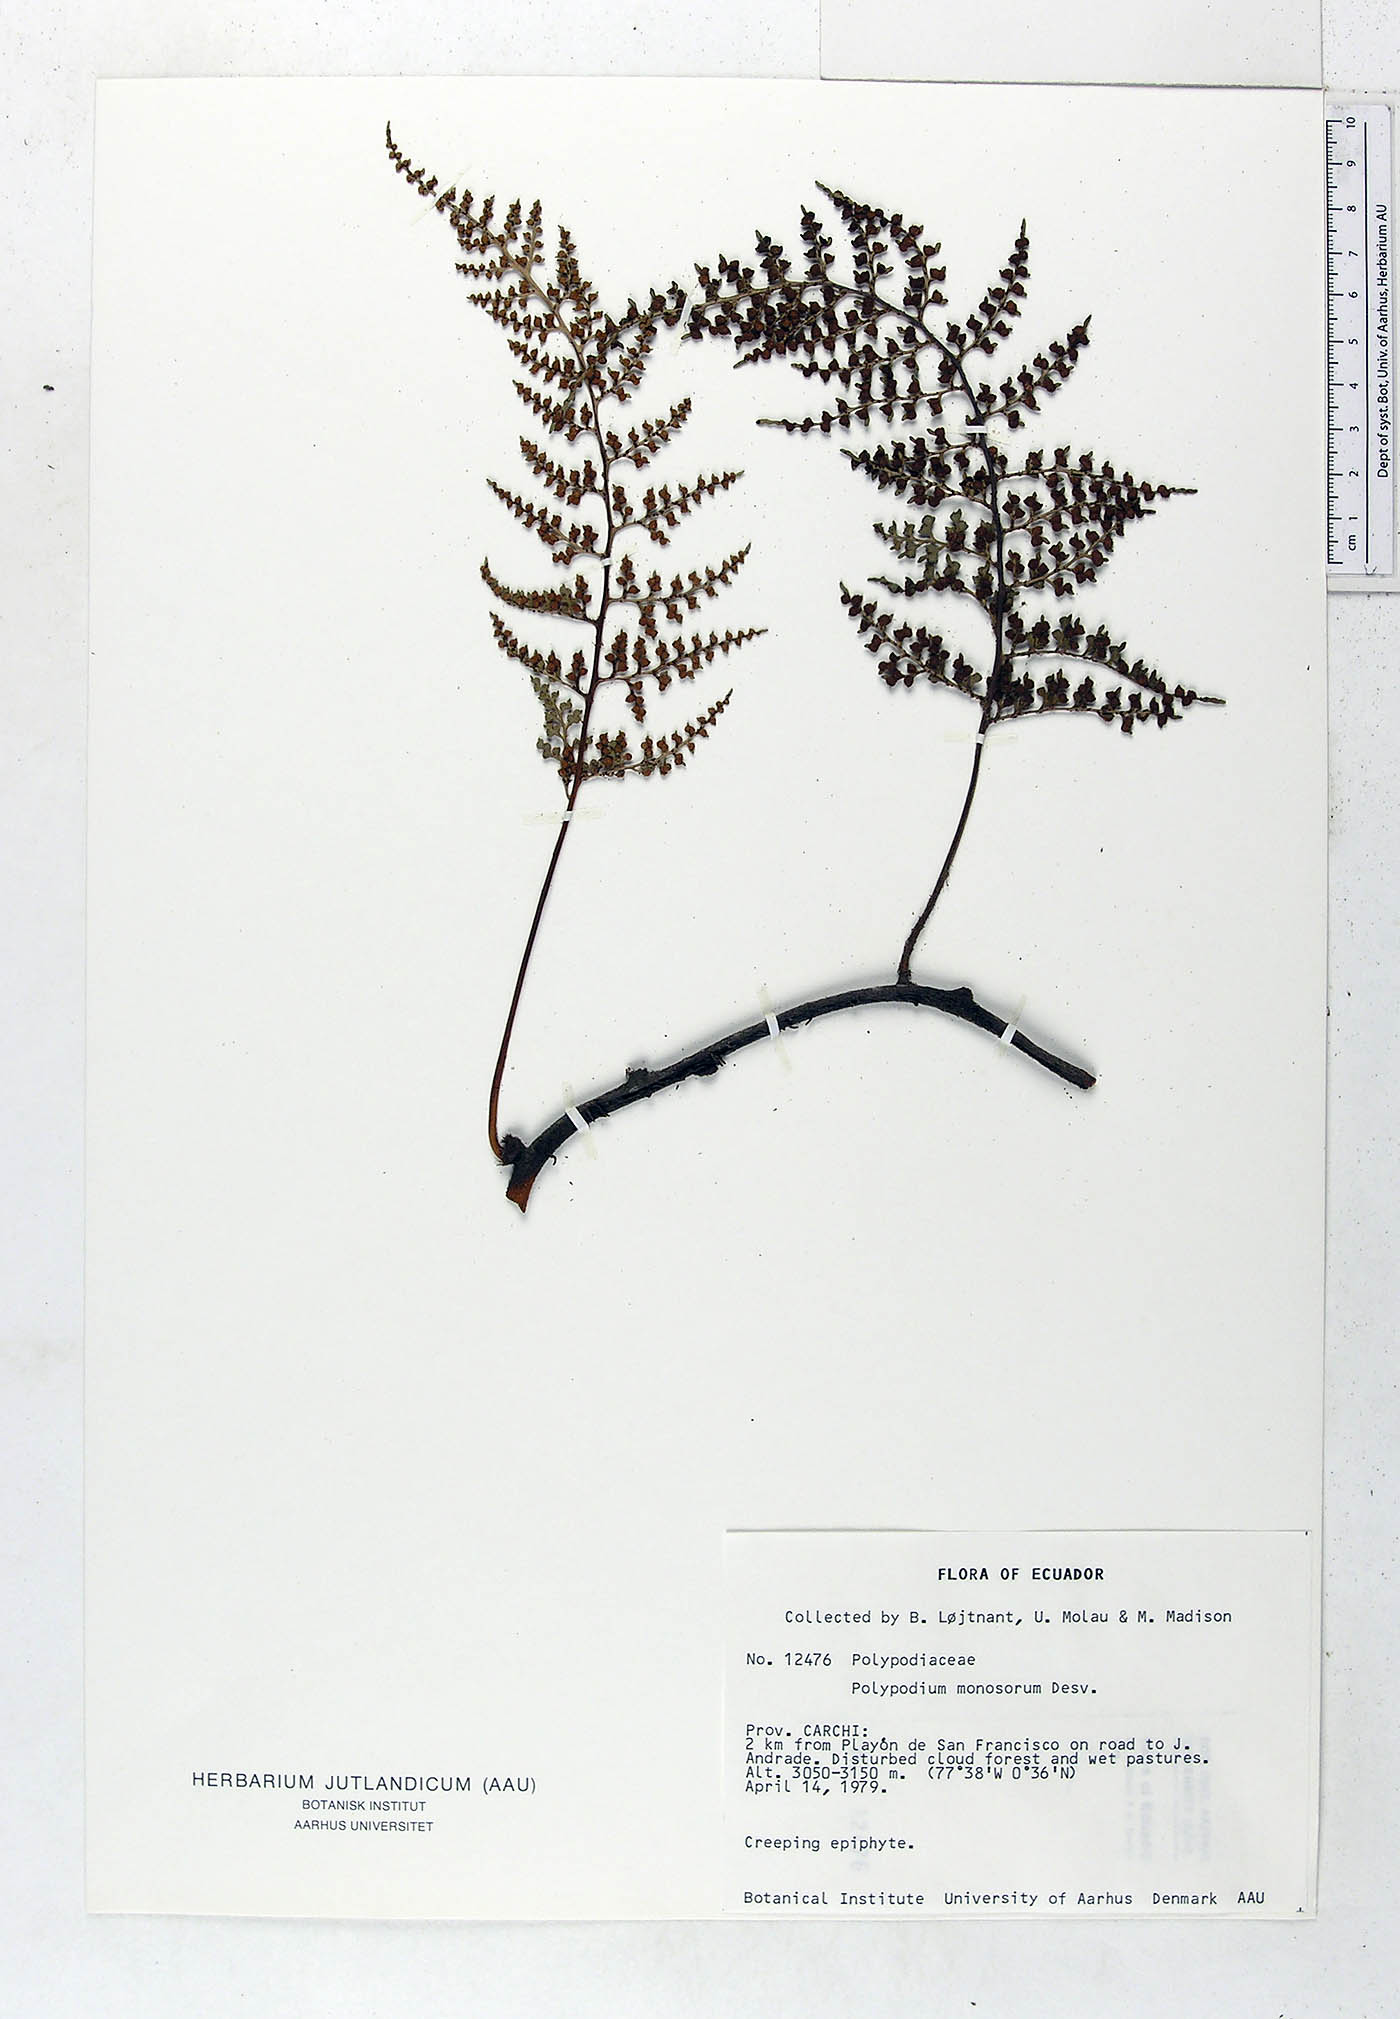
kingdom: Plantae
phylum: Tracheophyta
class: Polypodiopsida
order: Polypodiales
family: Polypodiaceae
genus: Pleopeltis
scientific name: Pleopeltis monosora
